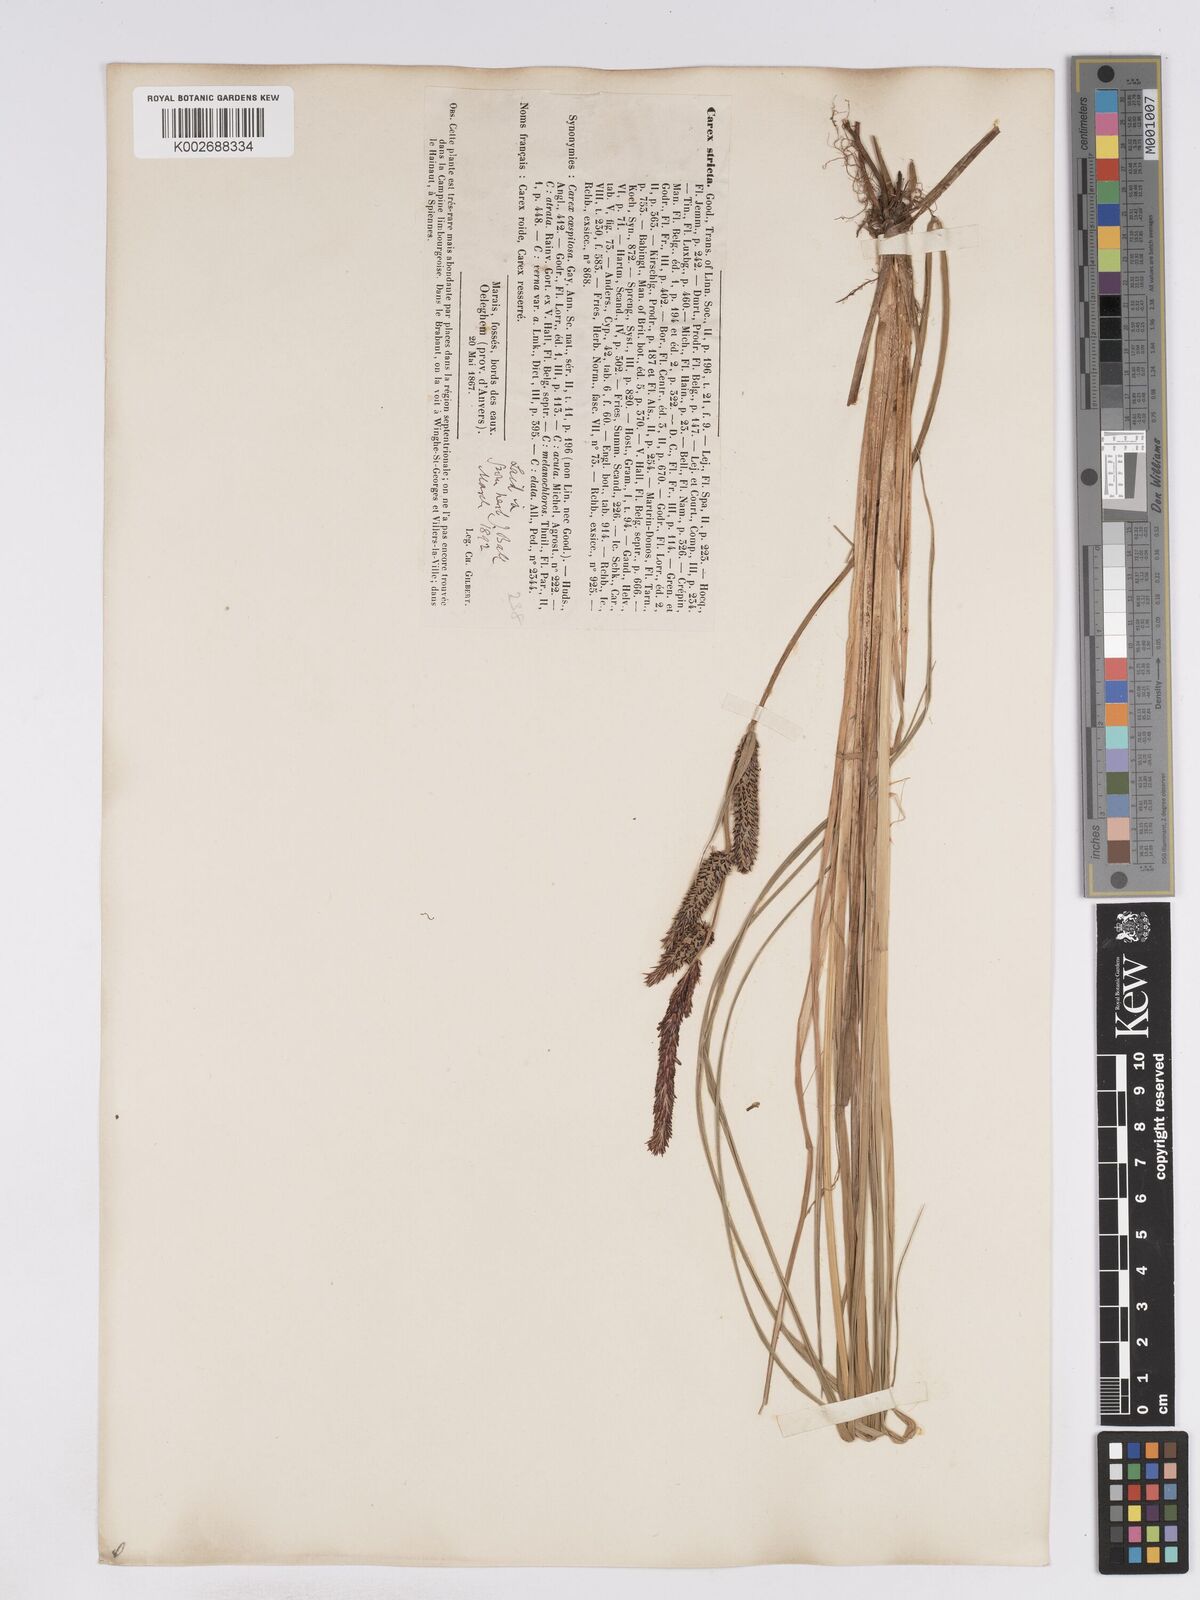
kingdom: Plantae
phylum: Tracheophyta
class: Liliopsida
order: Poales
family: Cyperaceae
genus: Carex
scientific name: Carex elata
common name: Tufted sedge
